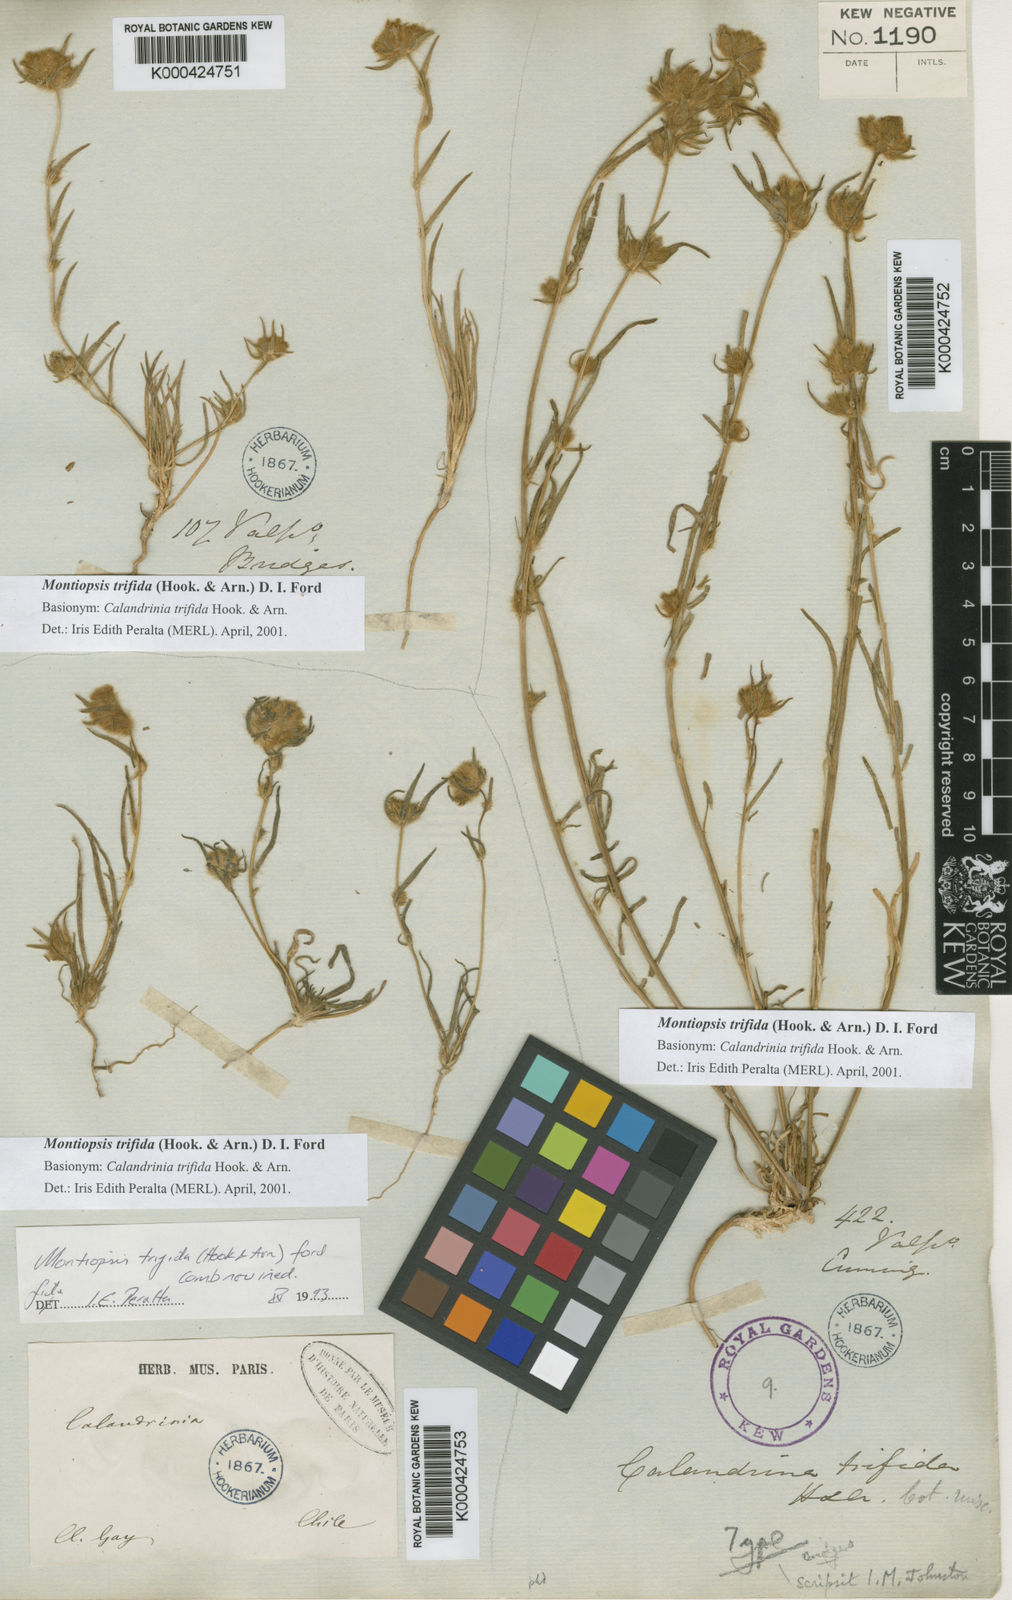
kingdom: Plantae
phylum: Tracheophyta
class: Magnoliopsida
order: Caryophyllales
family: Montiaceae
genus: Montiopsis
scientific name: Montiopsis trifida
